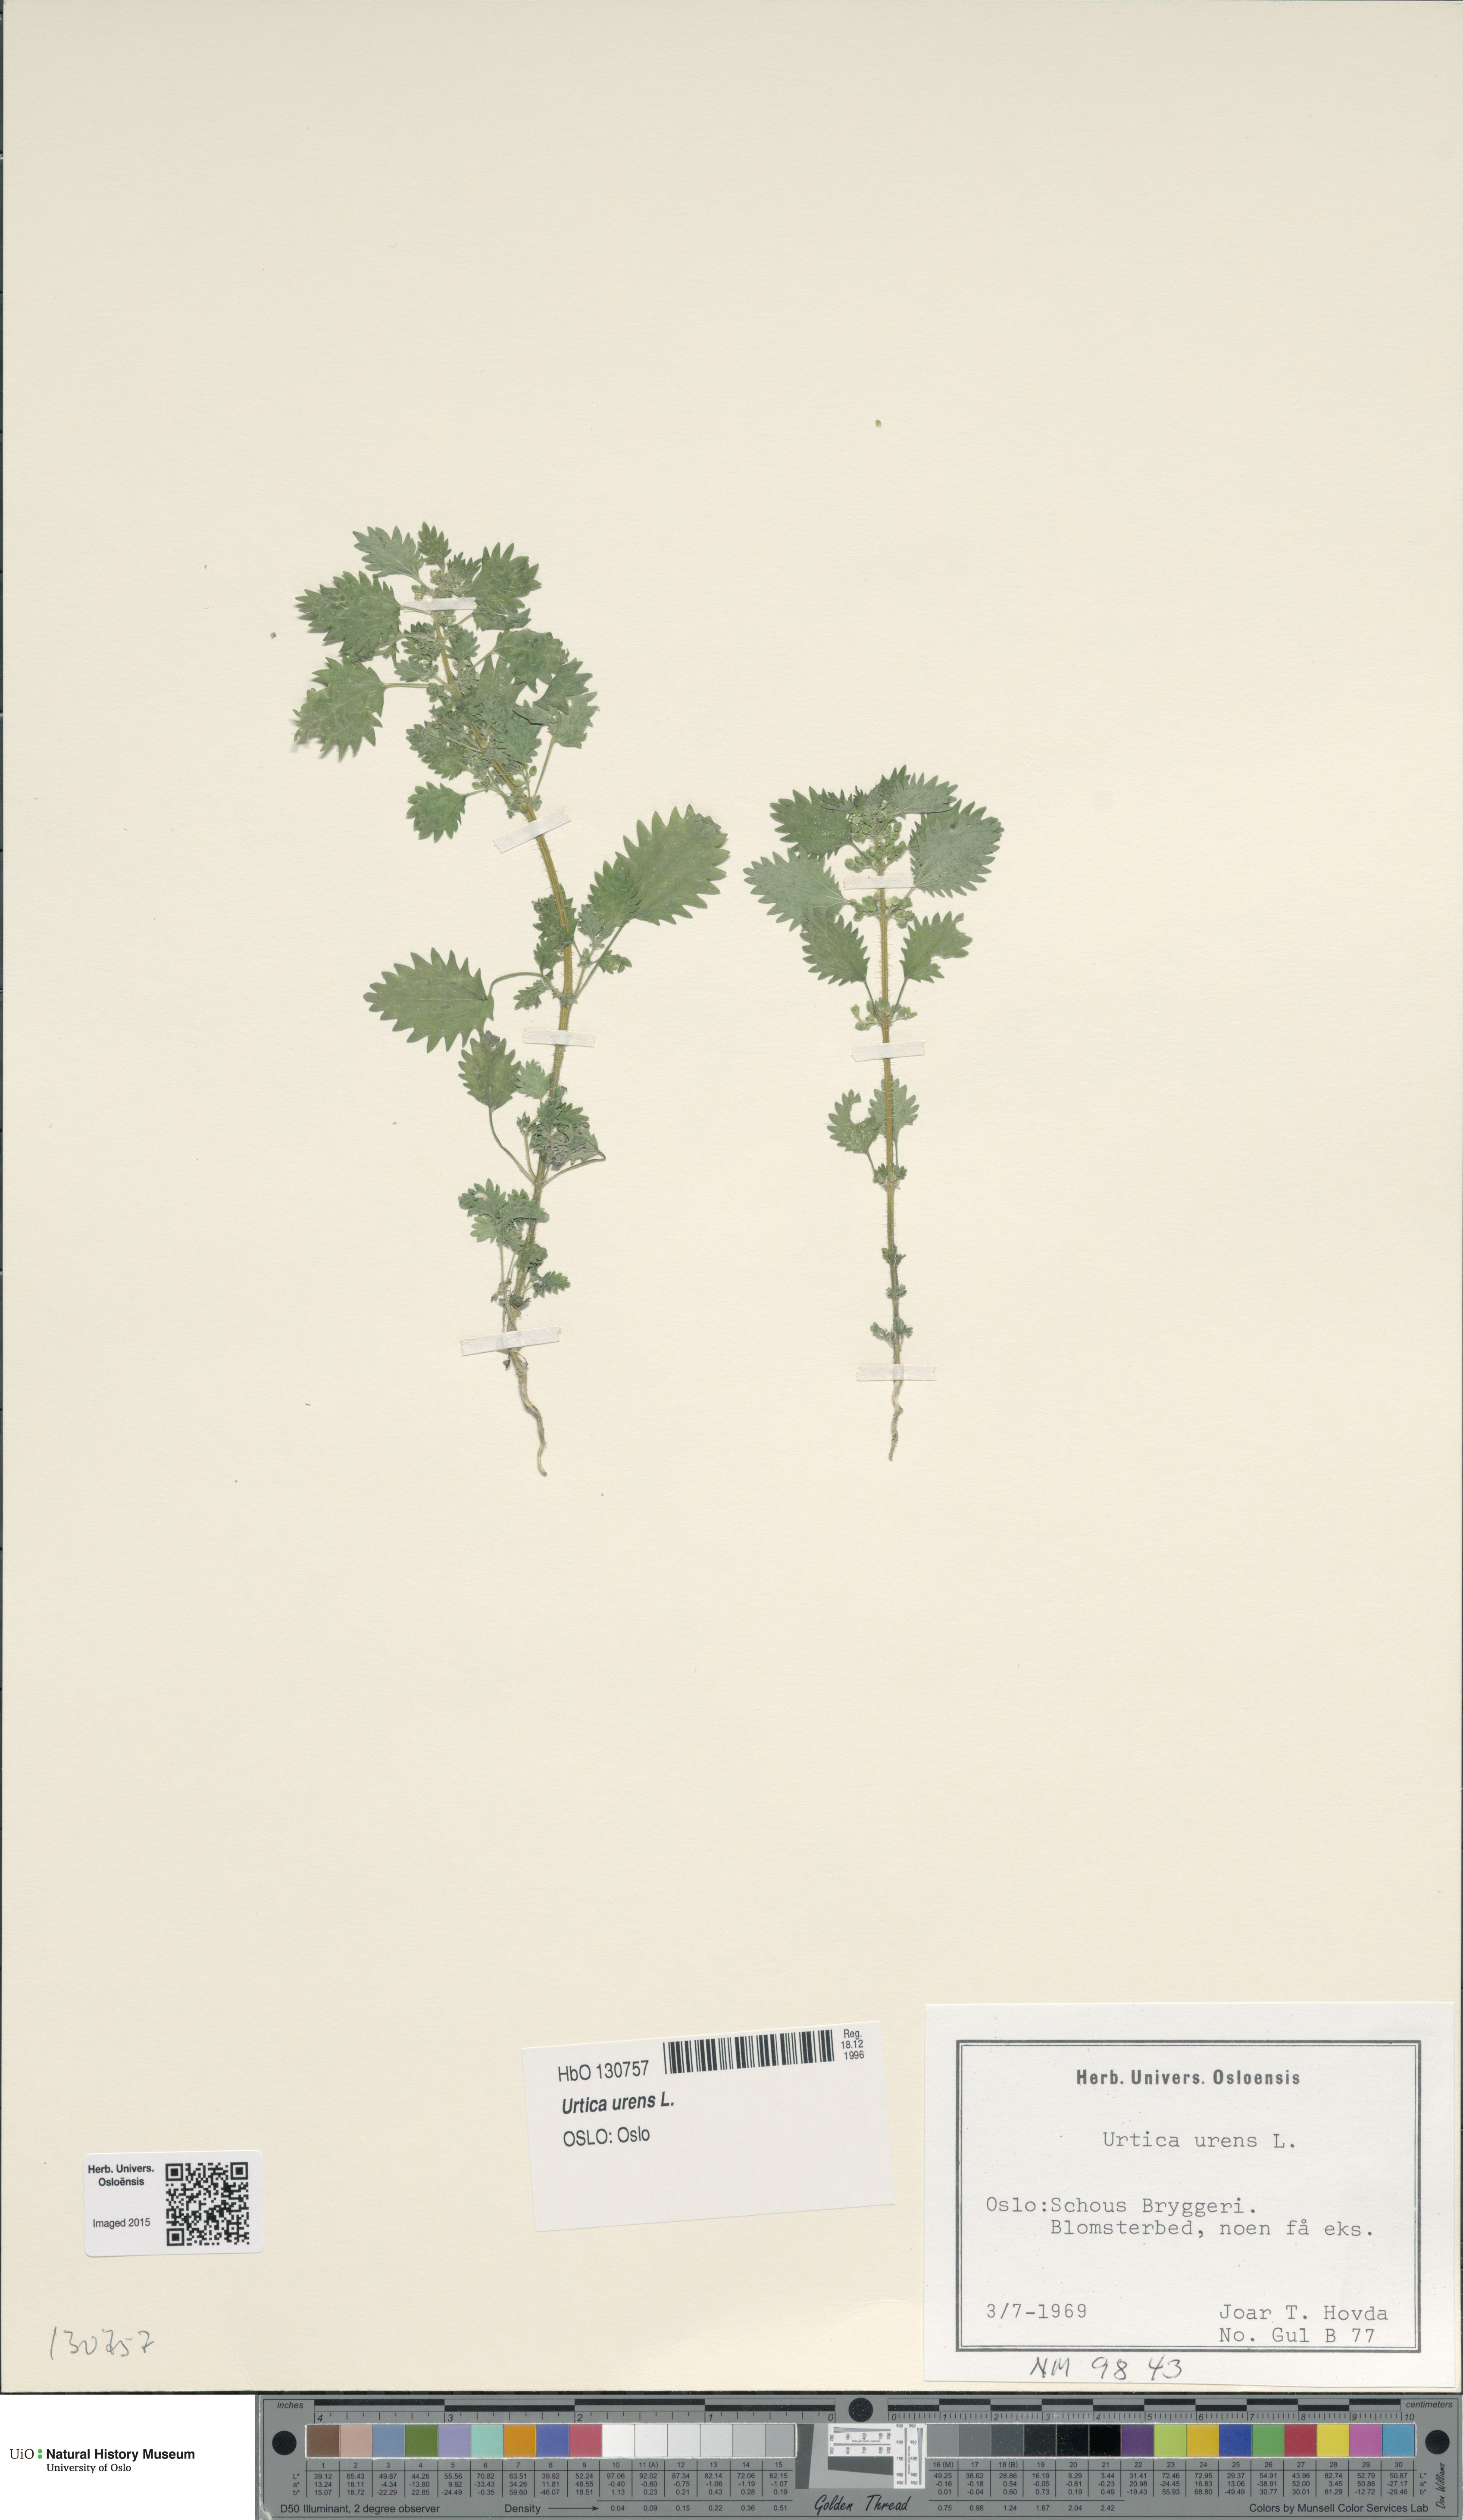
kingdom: Plantae
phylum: Tracheophyta
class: Magnoliopsida
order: Rosales
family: Urticaceae
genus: Urtica
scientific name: Urtica urens
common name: Dwarf nettle
